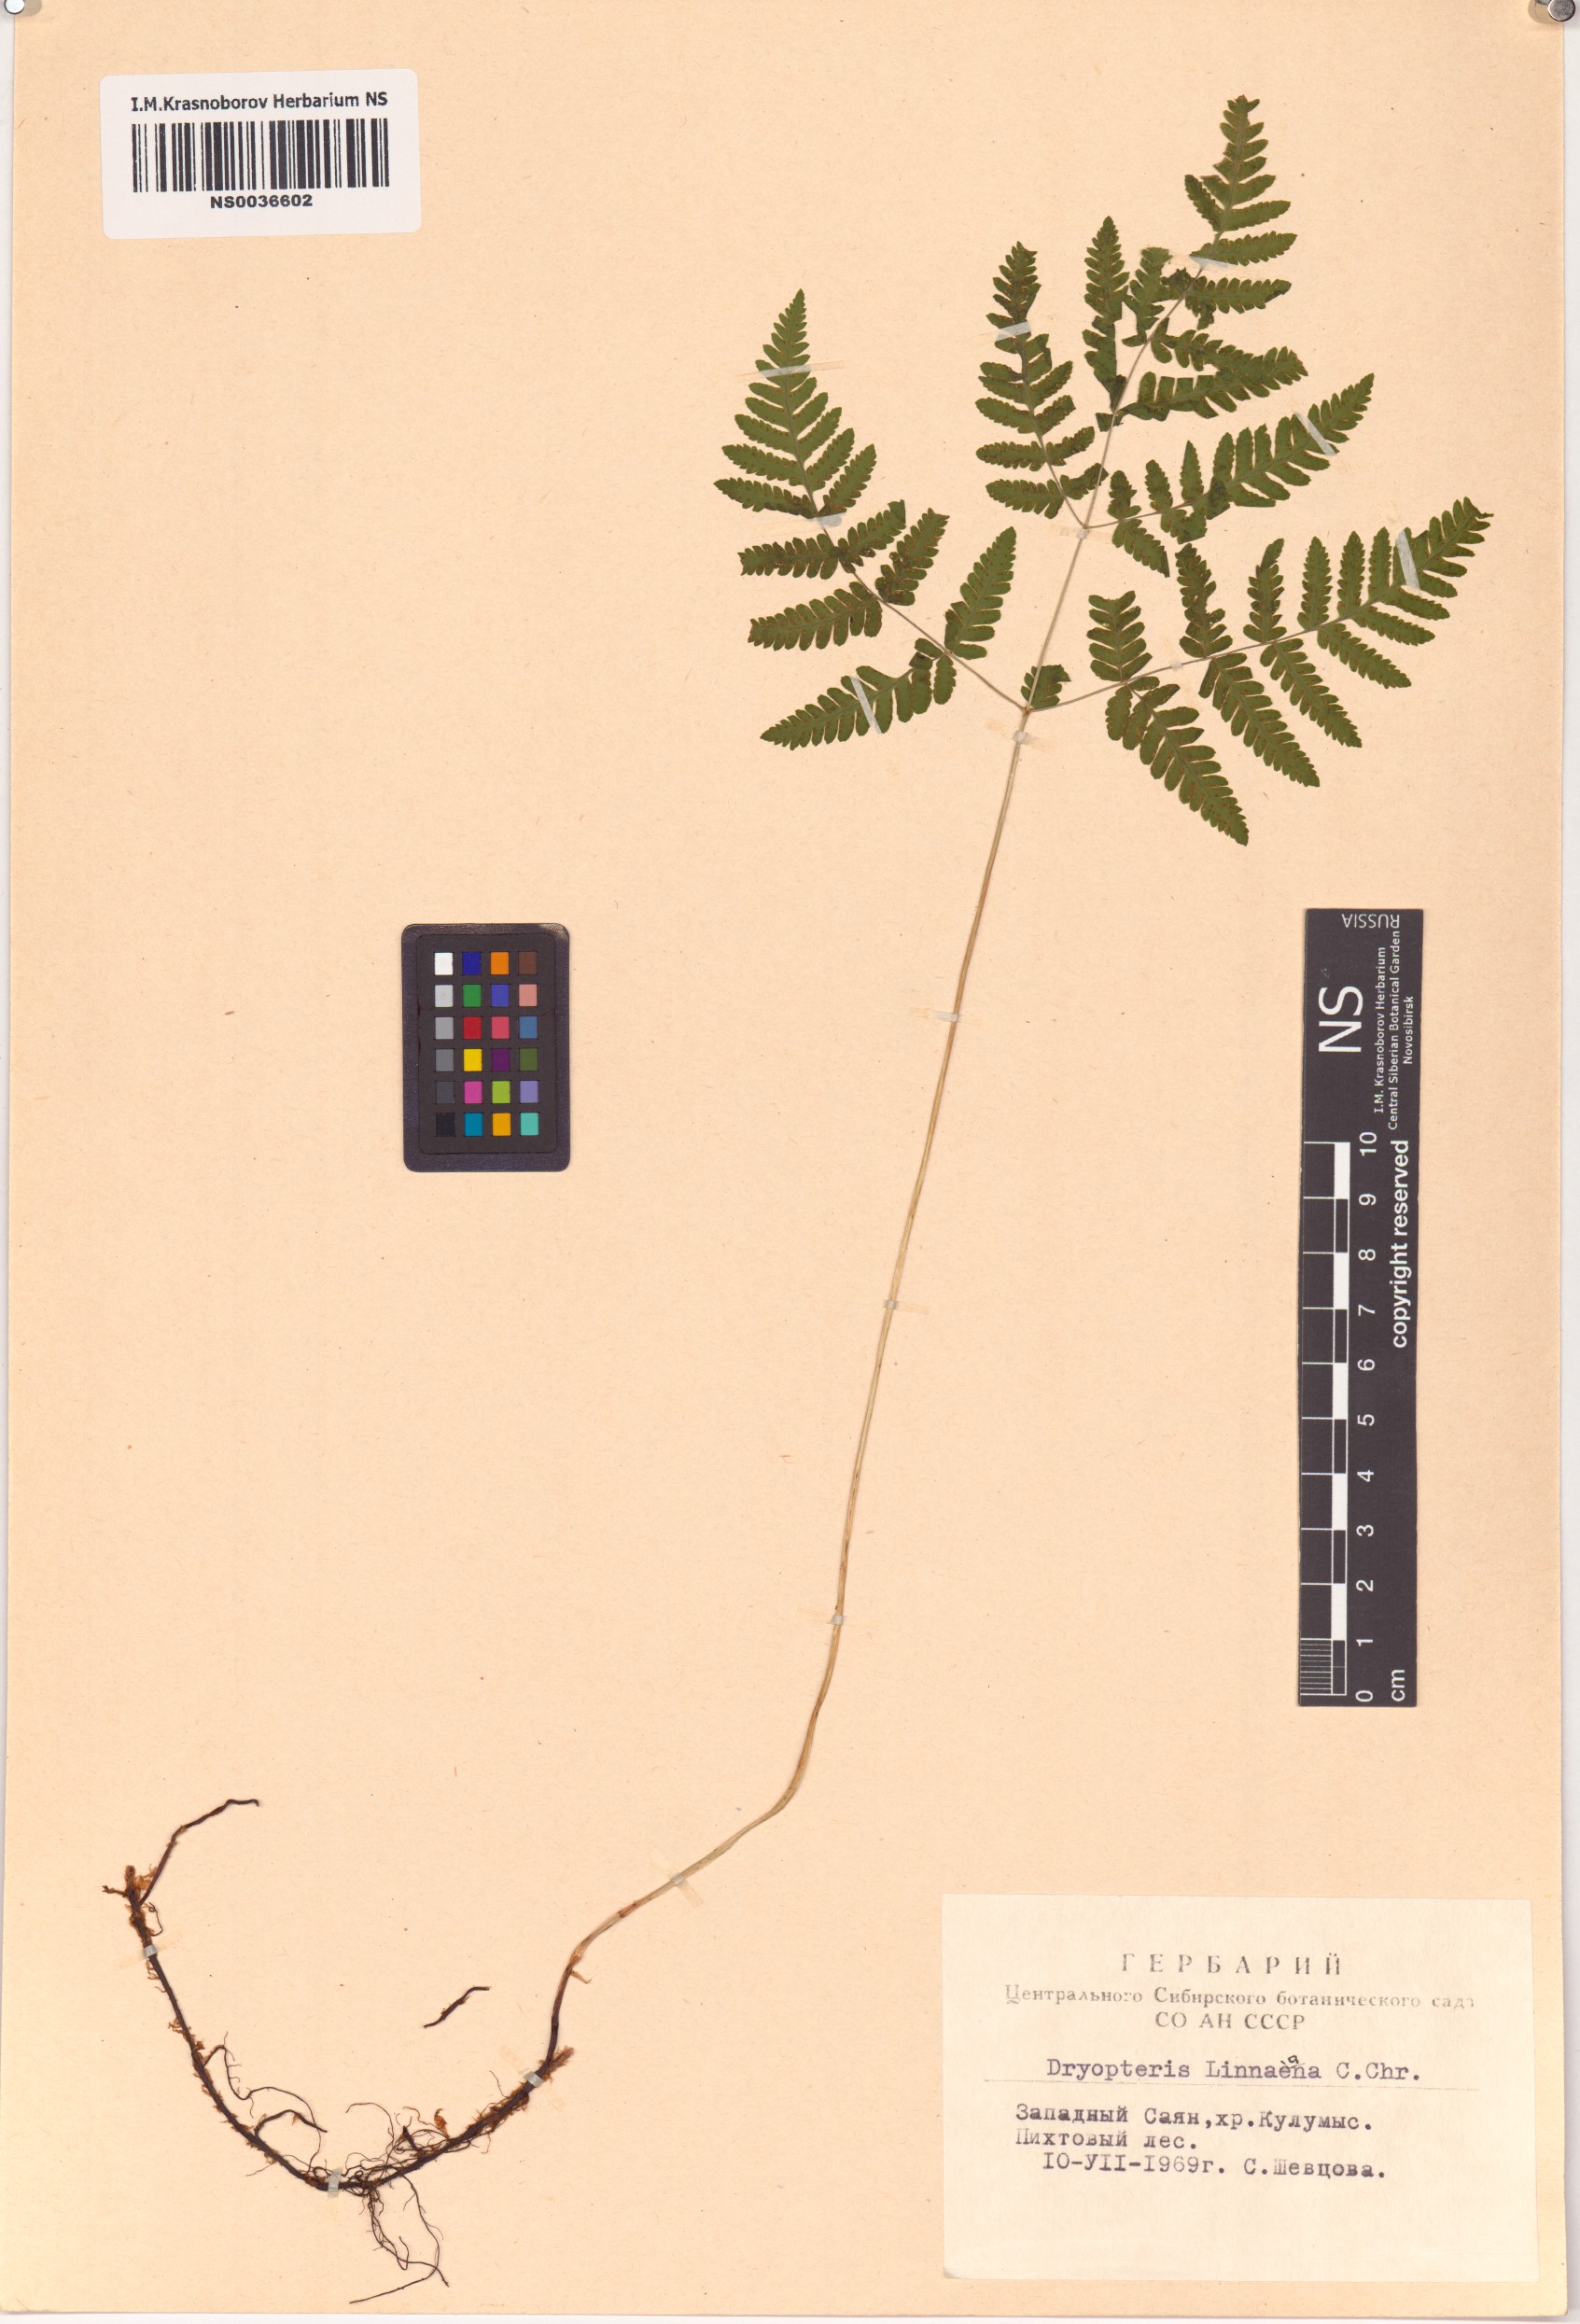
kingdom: Plantae
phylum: Tracheophyta
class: Polypodiopsida
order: Polypodiales
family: Cystopteridaceae
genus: Gymnocarpium
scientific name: Gymnocarpium dryopteris
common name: Oak fern
